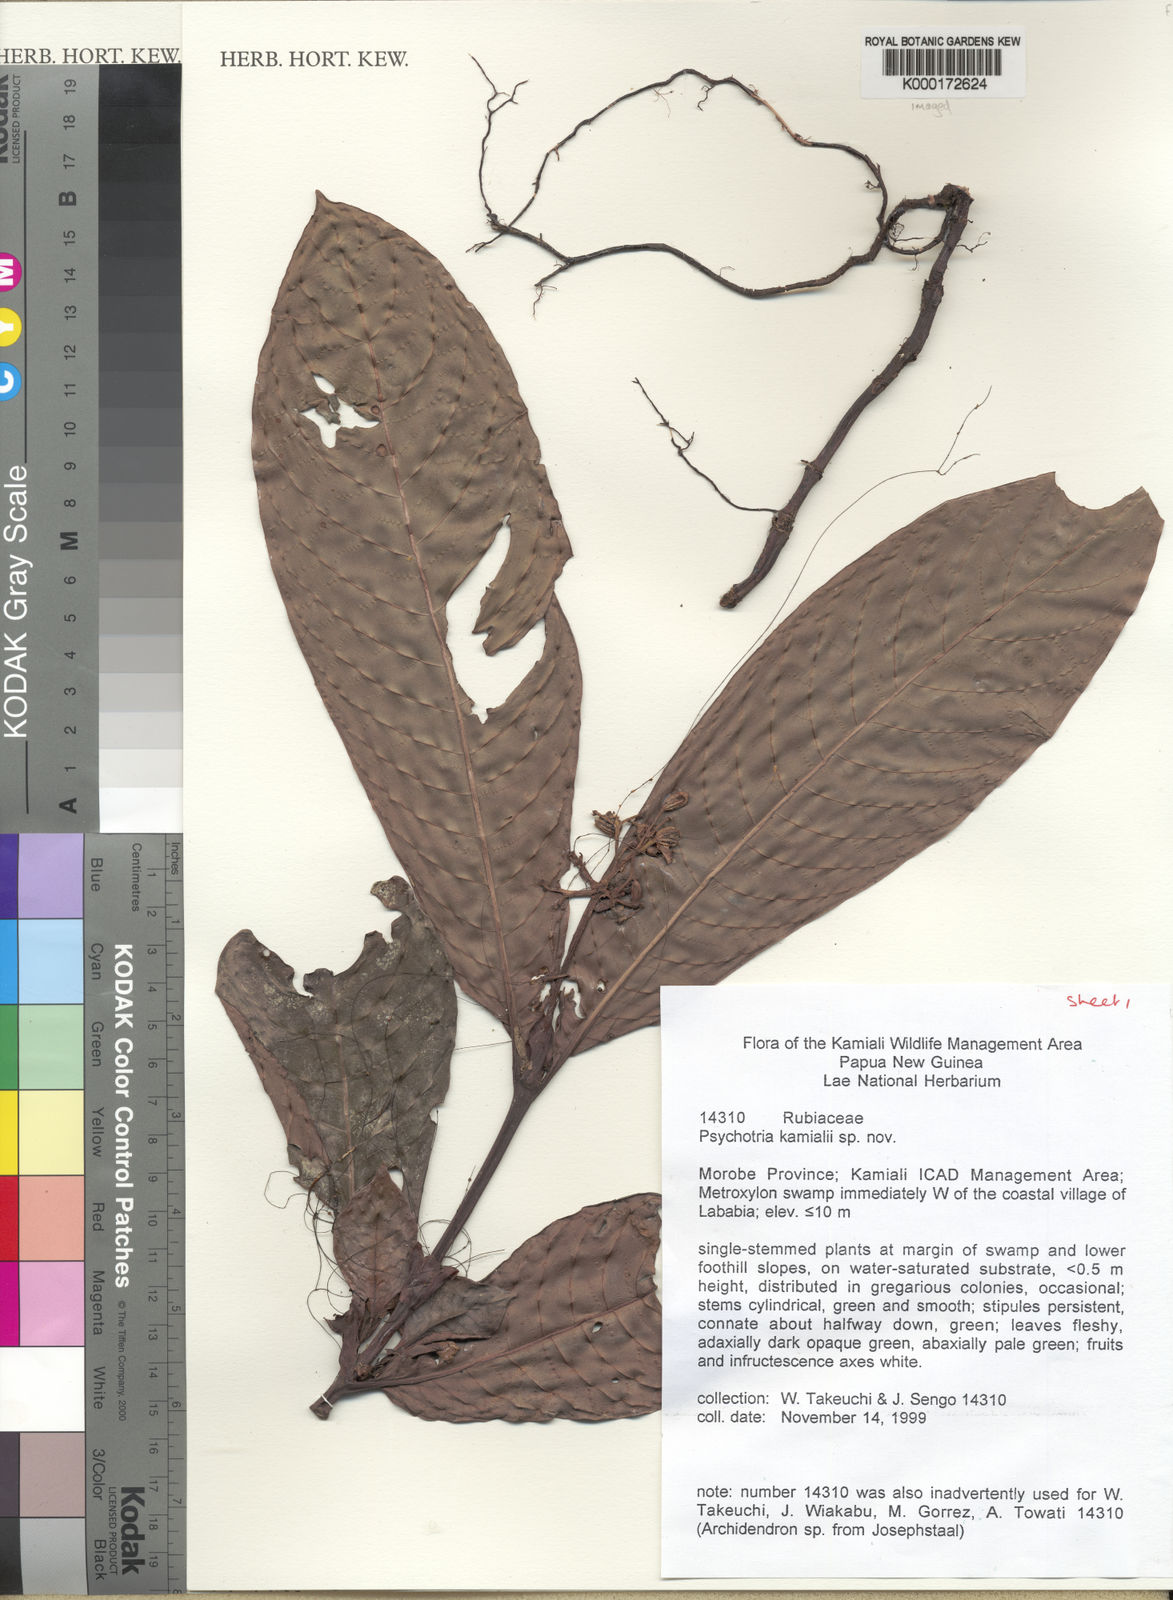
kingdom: Plantae
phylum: Tracheophyta
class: Magnoliopsida
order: Gentianales
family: Rubiaceae
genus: Psychotria
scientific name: Psychotria kamialii
